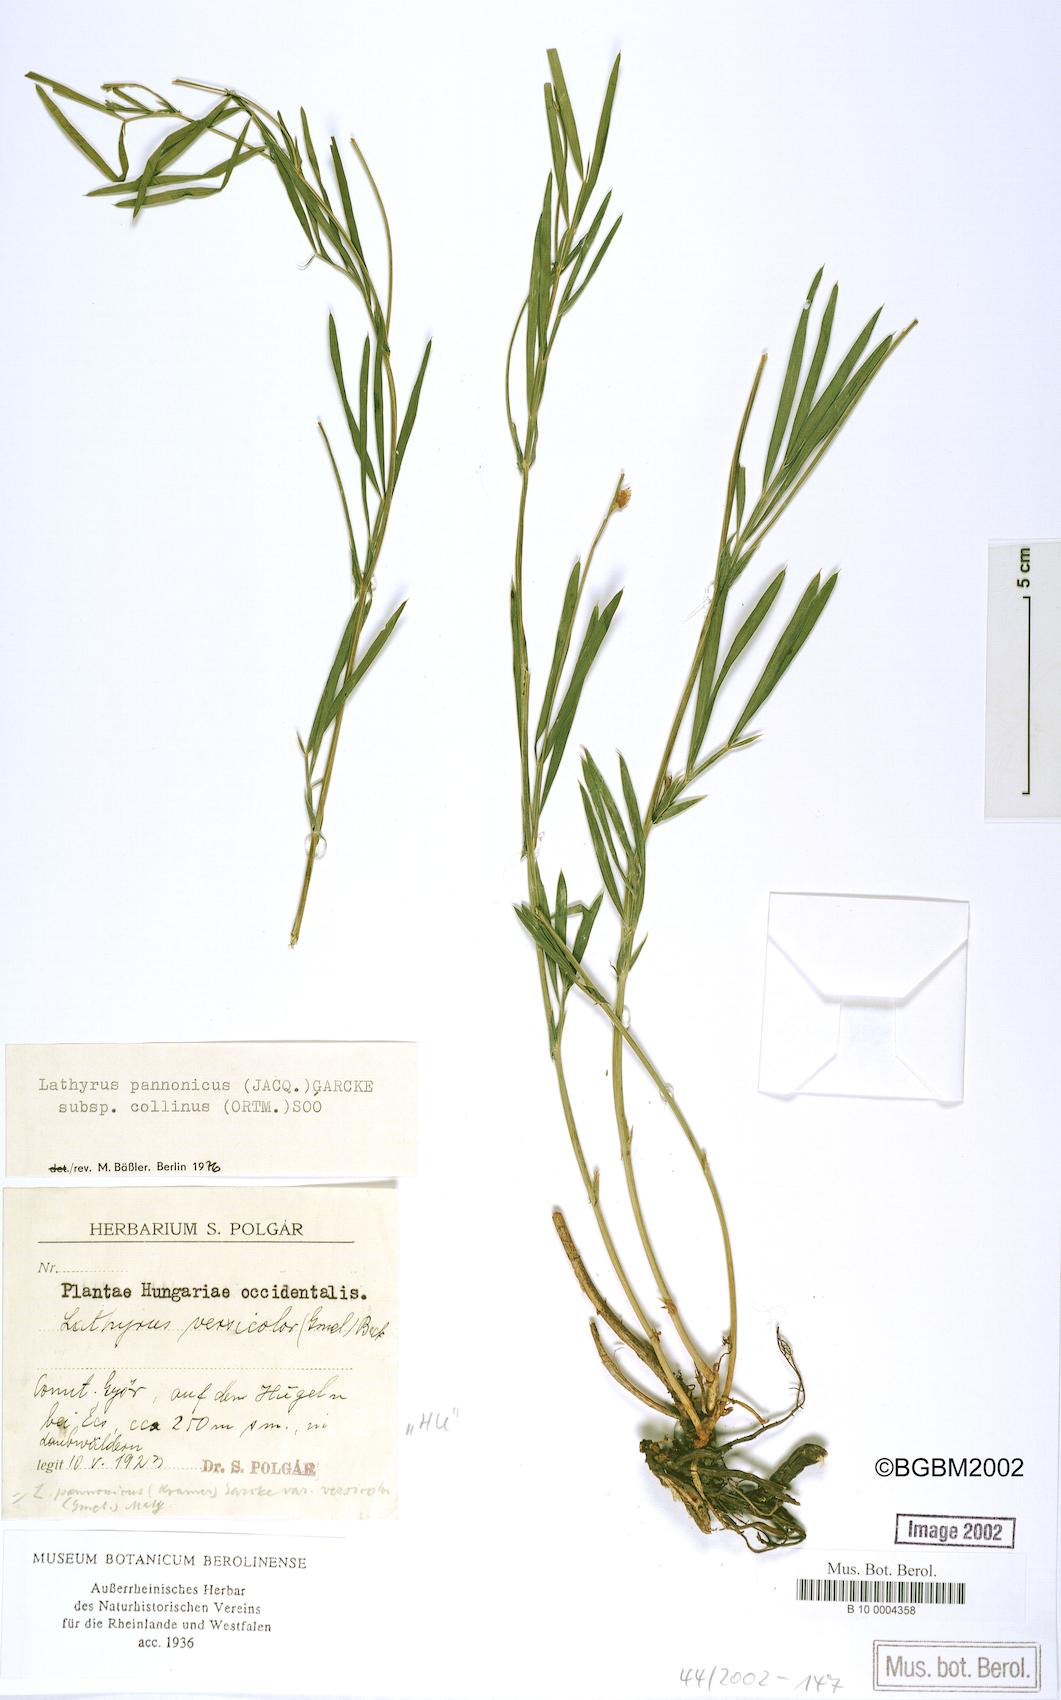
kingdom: Plantae
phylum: Tracheophyta
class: Magnoliopsida
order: Fabales
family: Fabaceae
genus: Lathyrus
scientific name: Lathyrus pannonicus
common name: Pea
